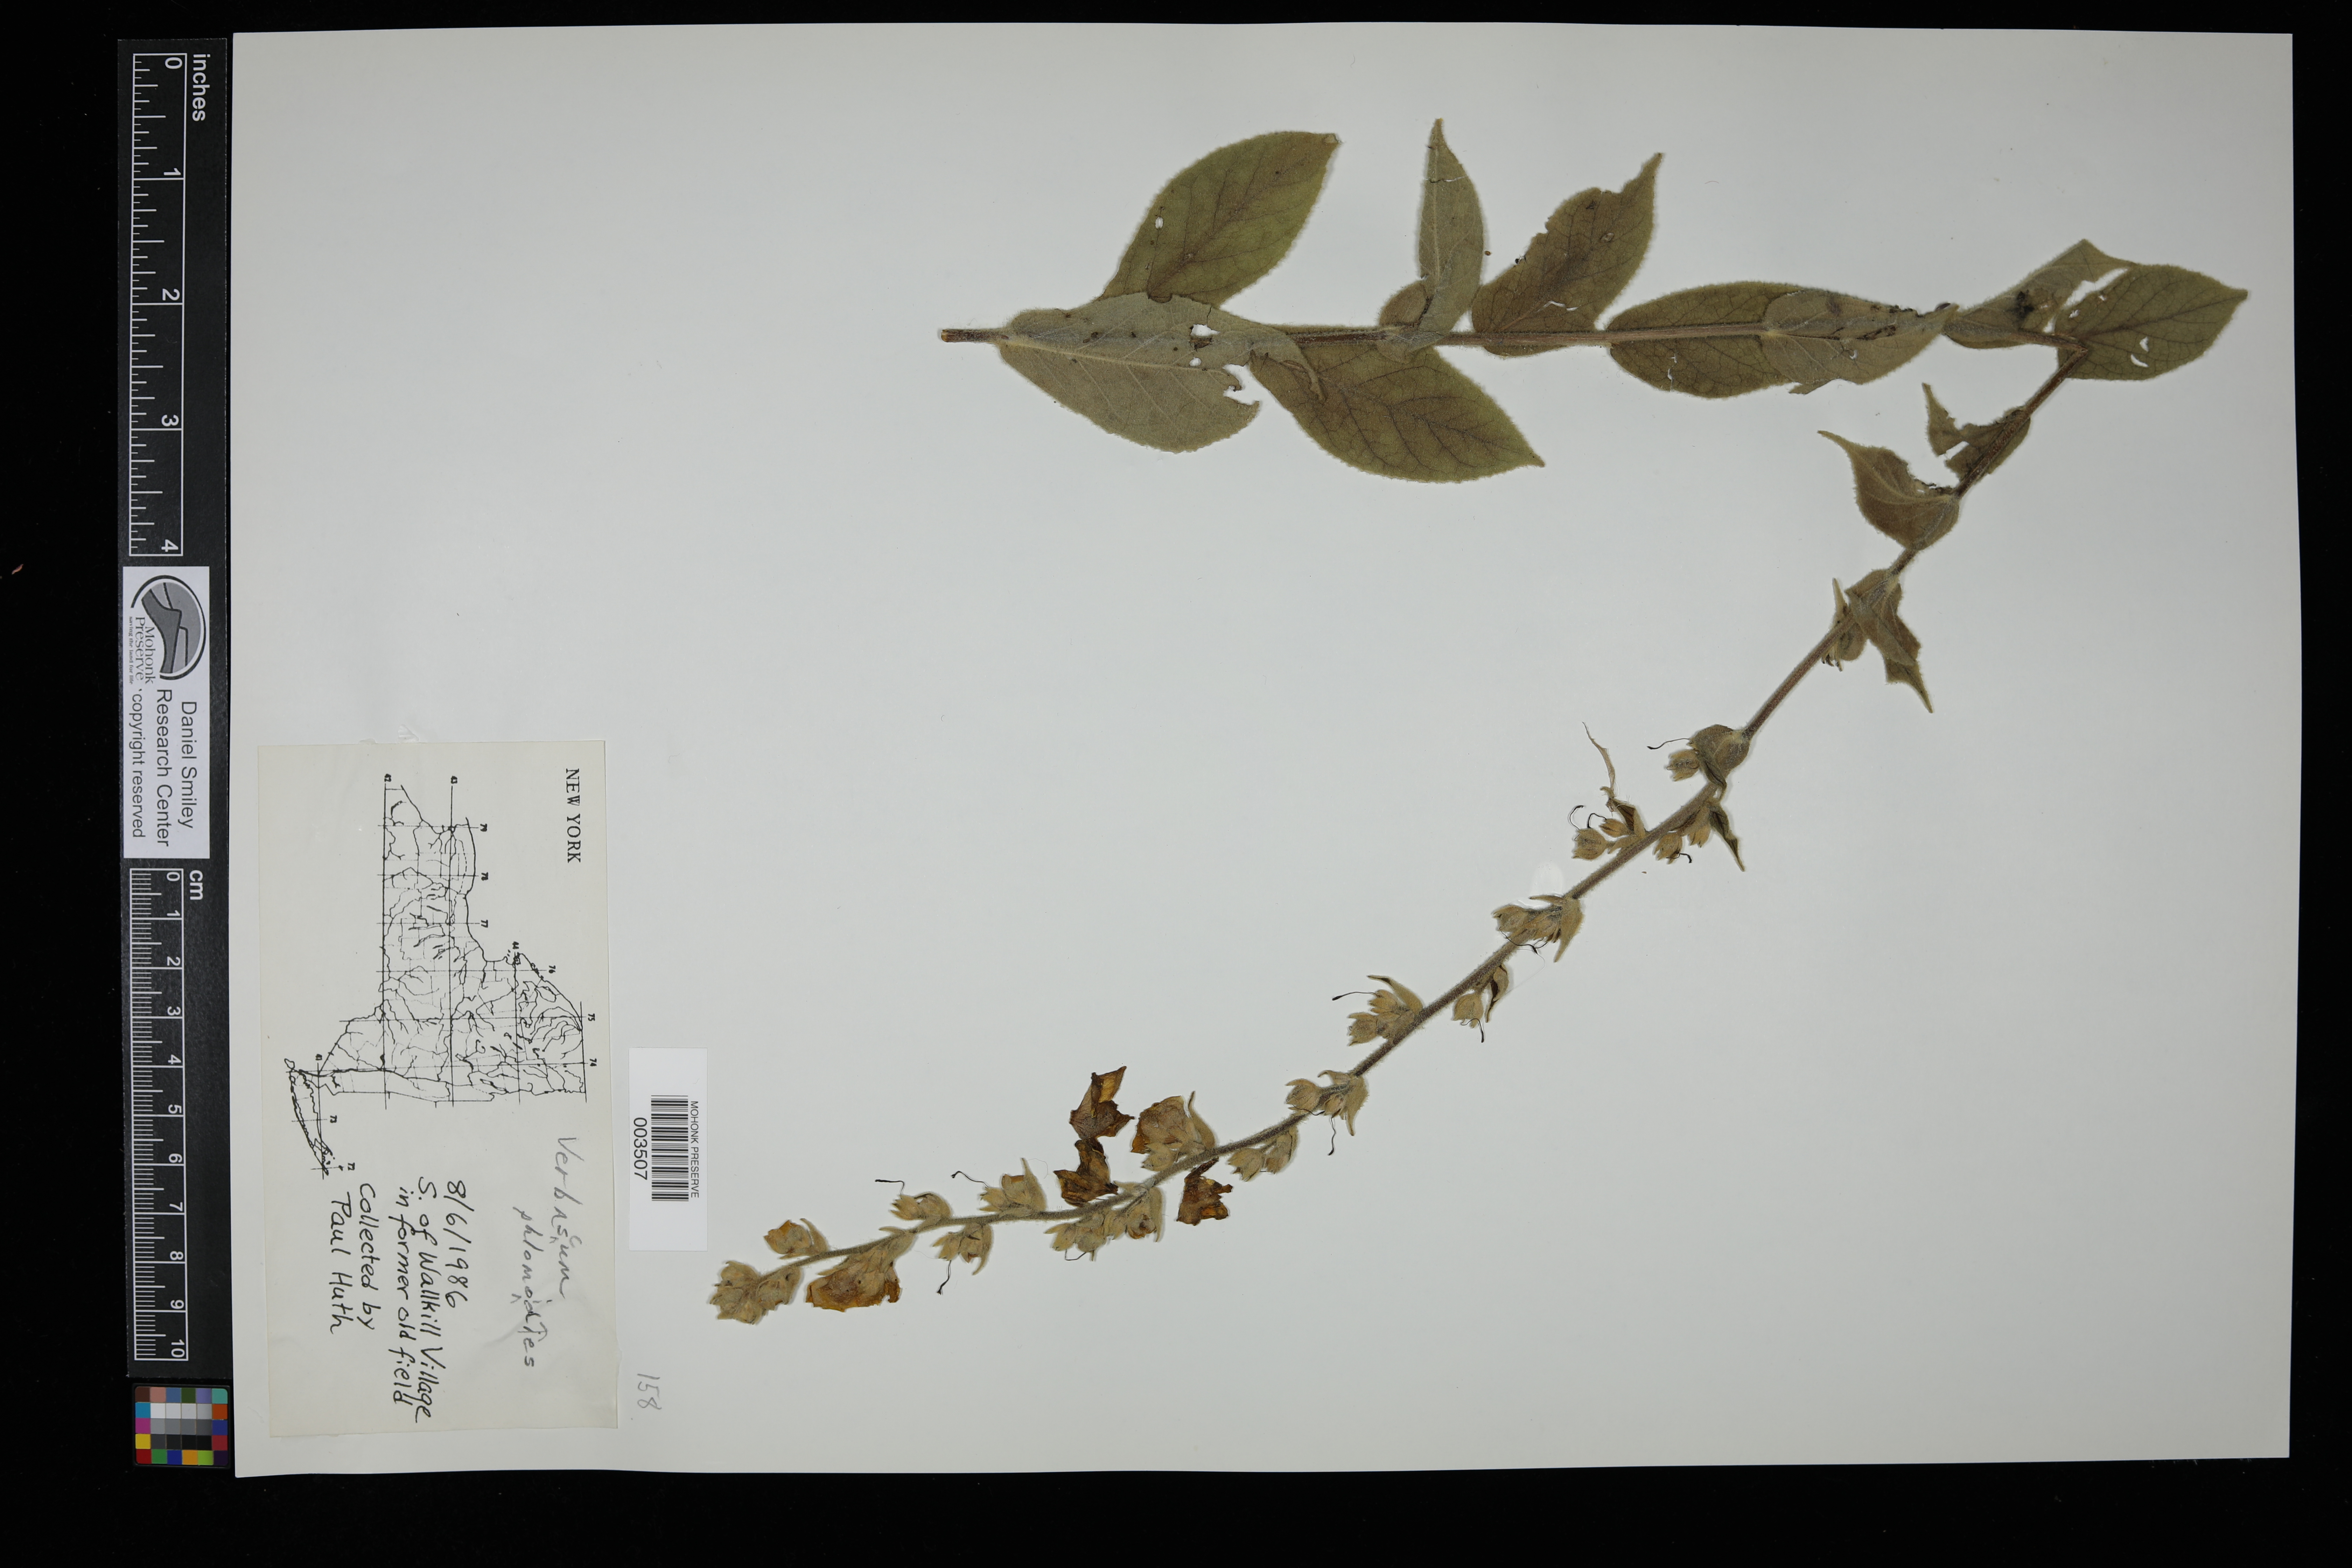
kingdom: Plantae
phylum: Tracheophyta
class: Magnoliopsida
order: Lamiales
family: Scrophulariaceae
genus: Verbascum
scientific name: Verbascum phlomoides
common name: Orange mullein
